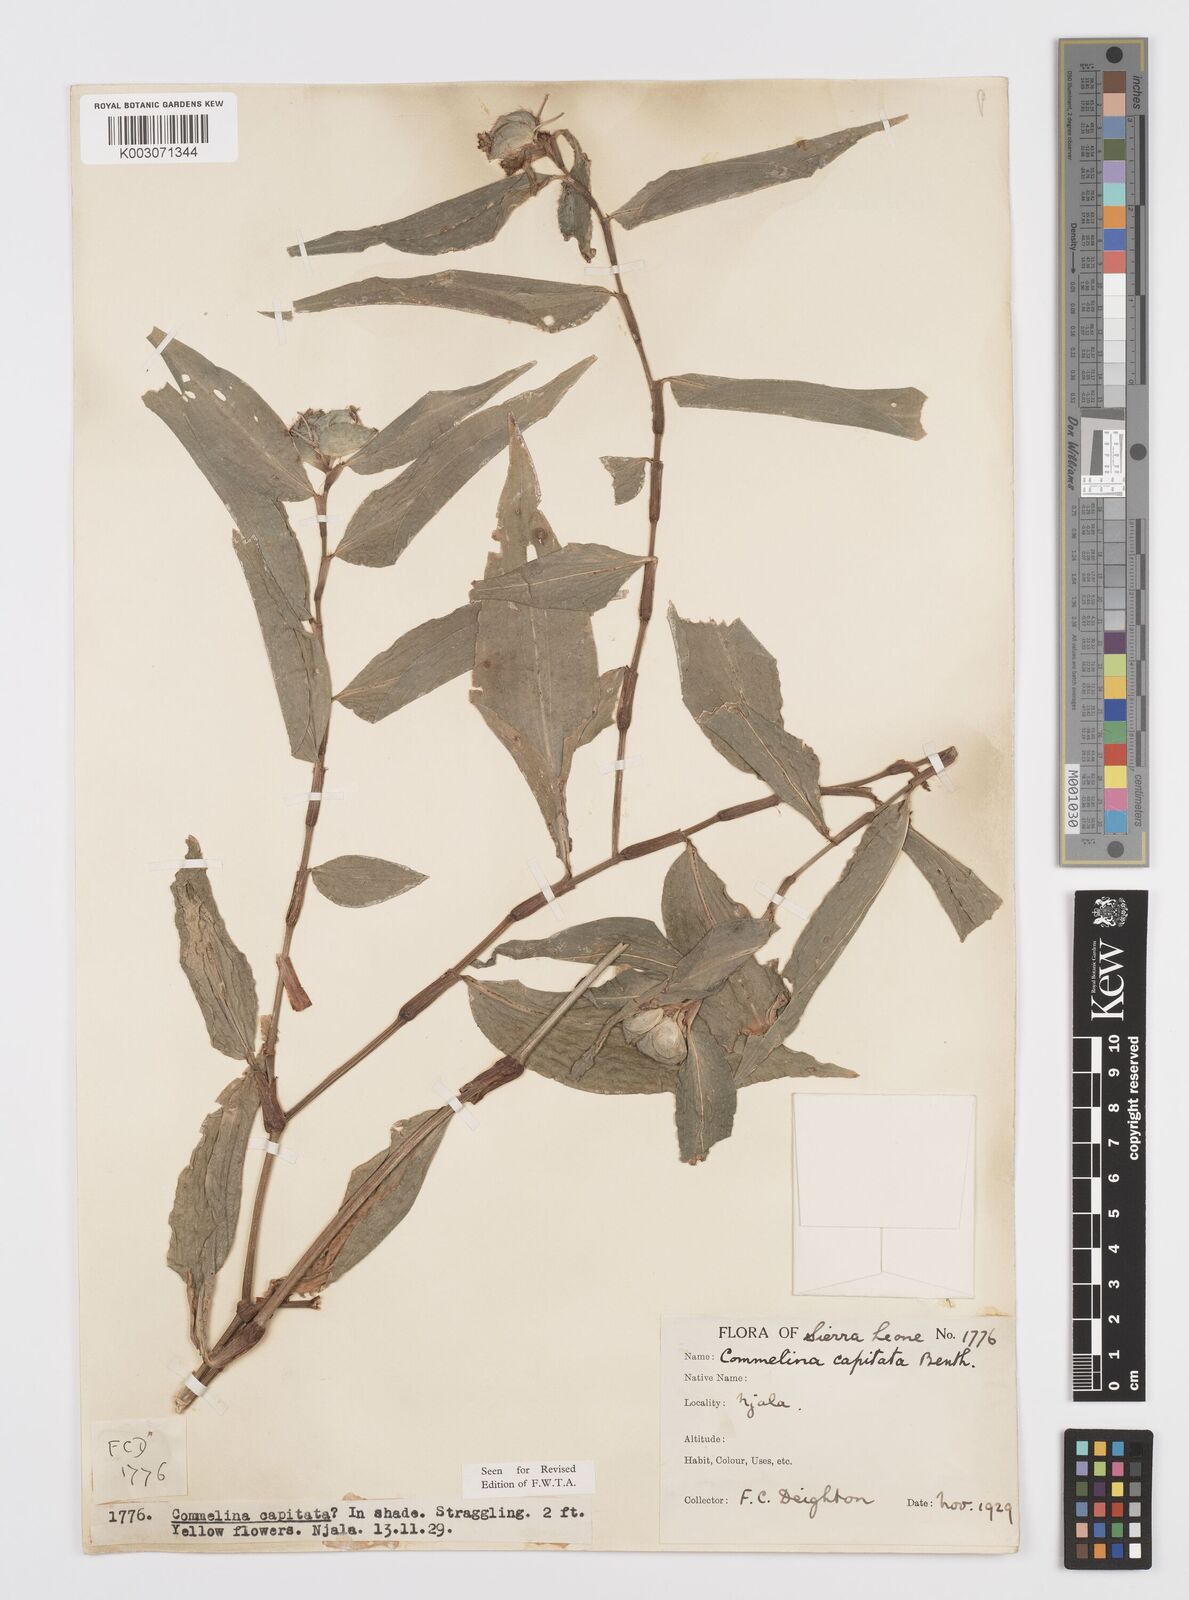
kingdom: Plantae
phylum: Tracheophyta
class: Liliopsida
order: Commelinales
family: Commelinaceae
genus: Commelina
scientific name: Commelina capitata
